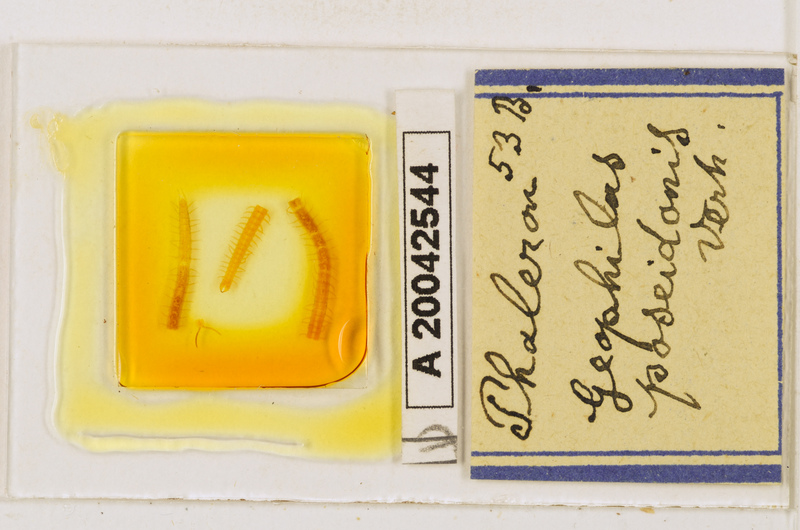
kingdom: Animalia
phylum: Arthropoda
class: Chilopoda
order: Geophilomorpha
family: Geophilidae
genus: Tuoba
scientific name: Tuoba poseidonis
